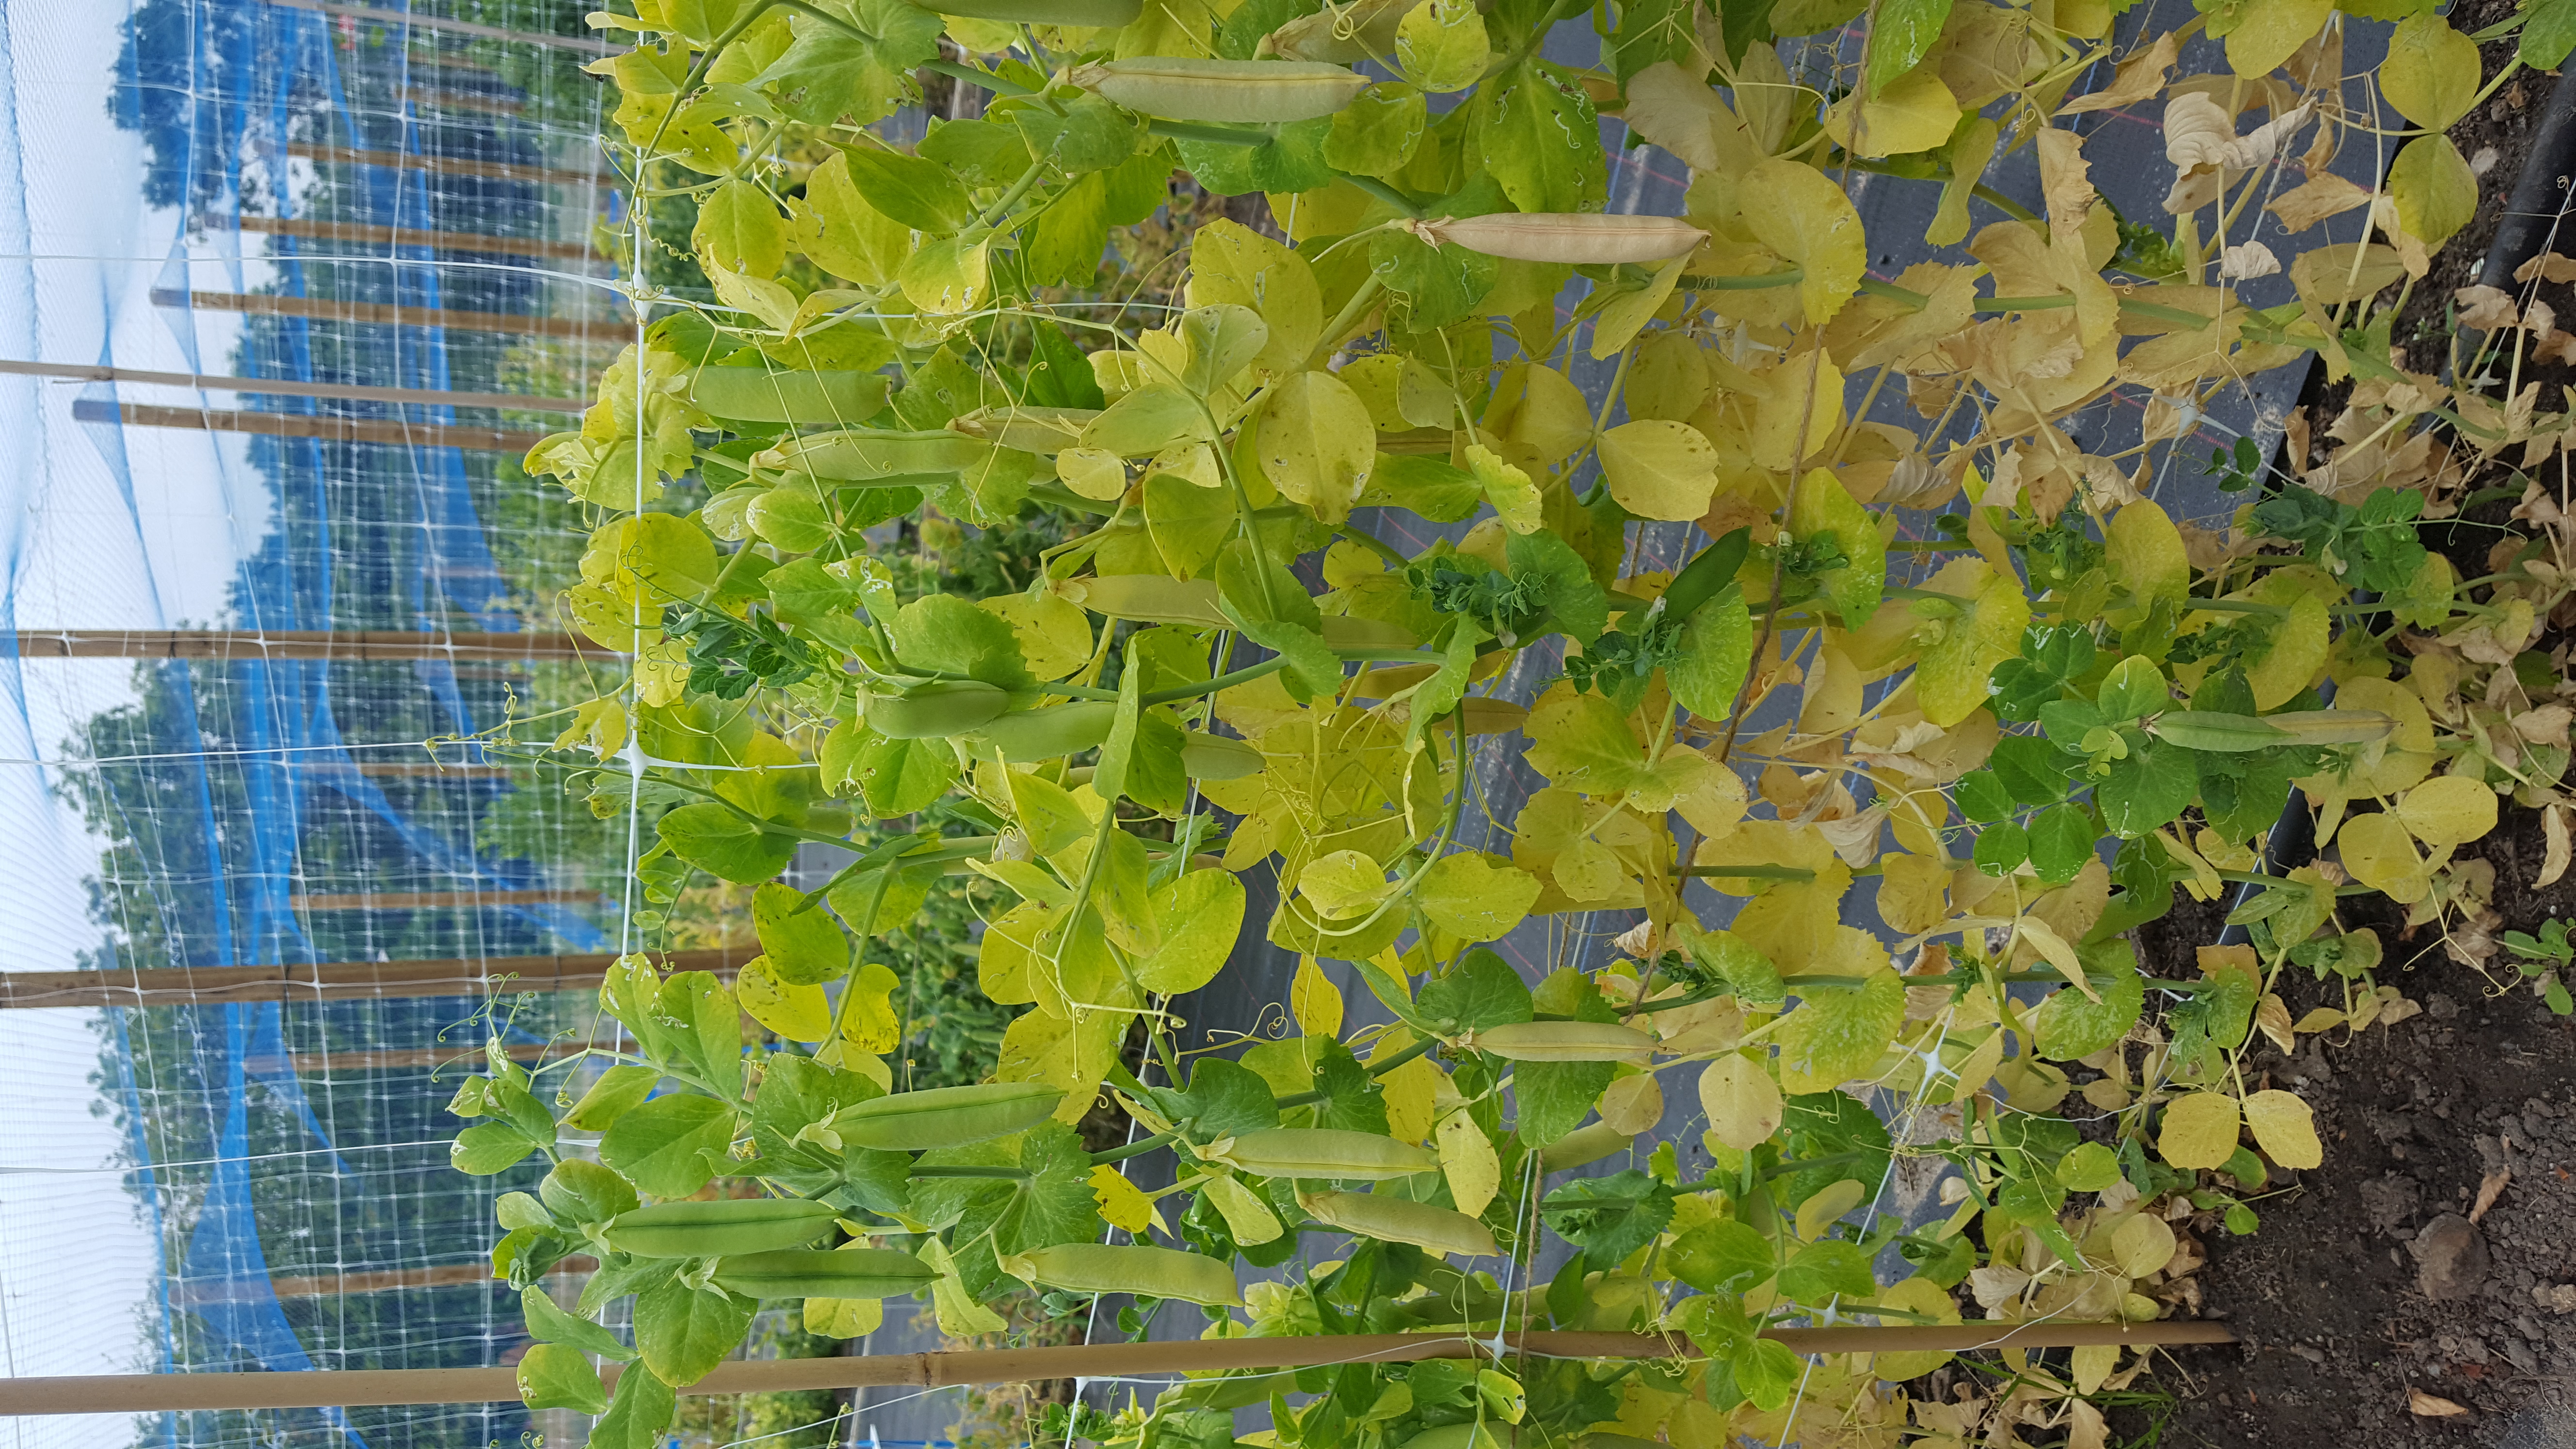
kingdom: Plantae
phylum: Tracheophyta
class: Magnoliopsida
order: Fabales
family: Fabaceae
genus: Lathyrus
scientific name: Lathyrus oleraceus
